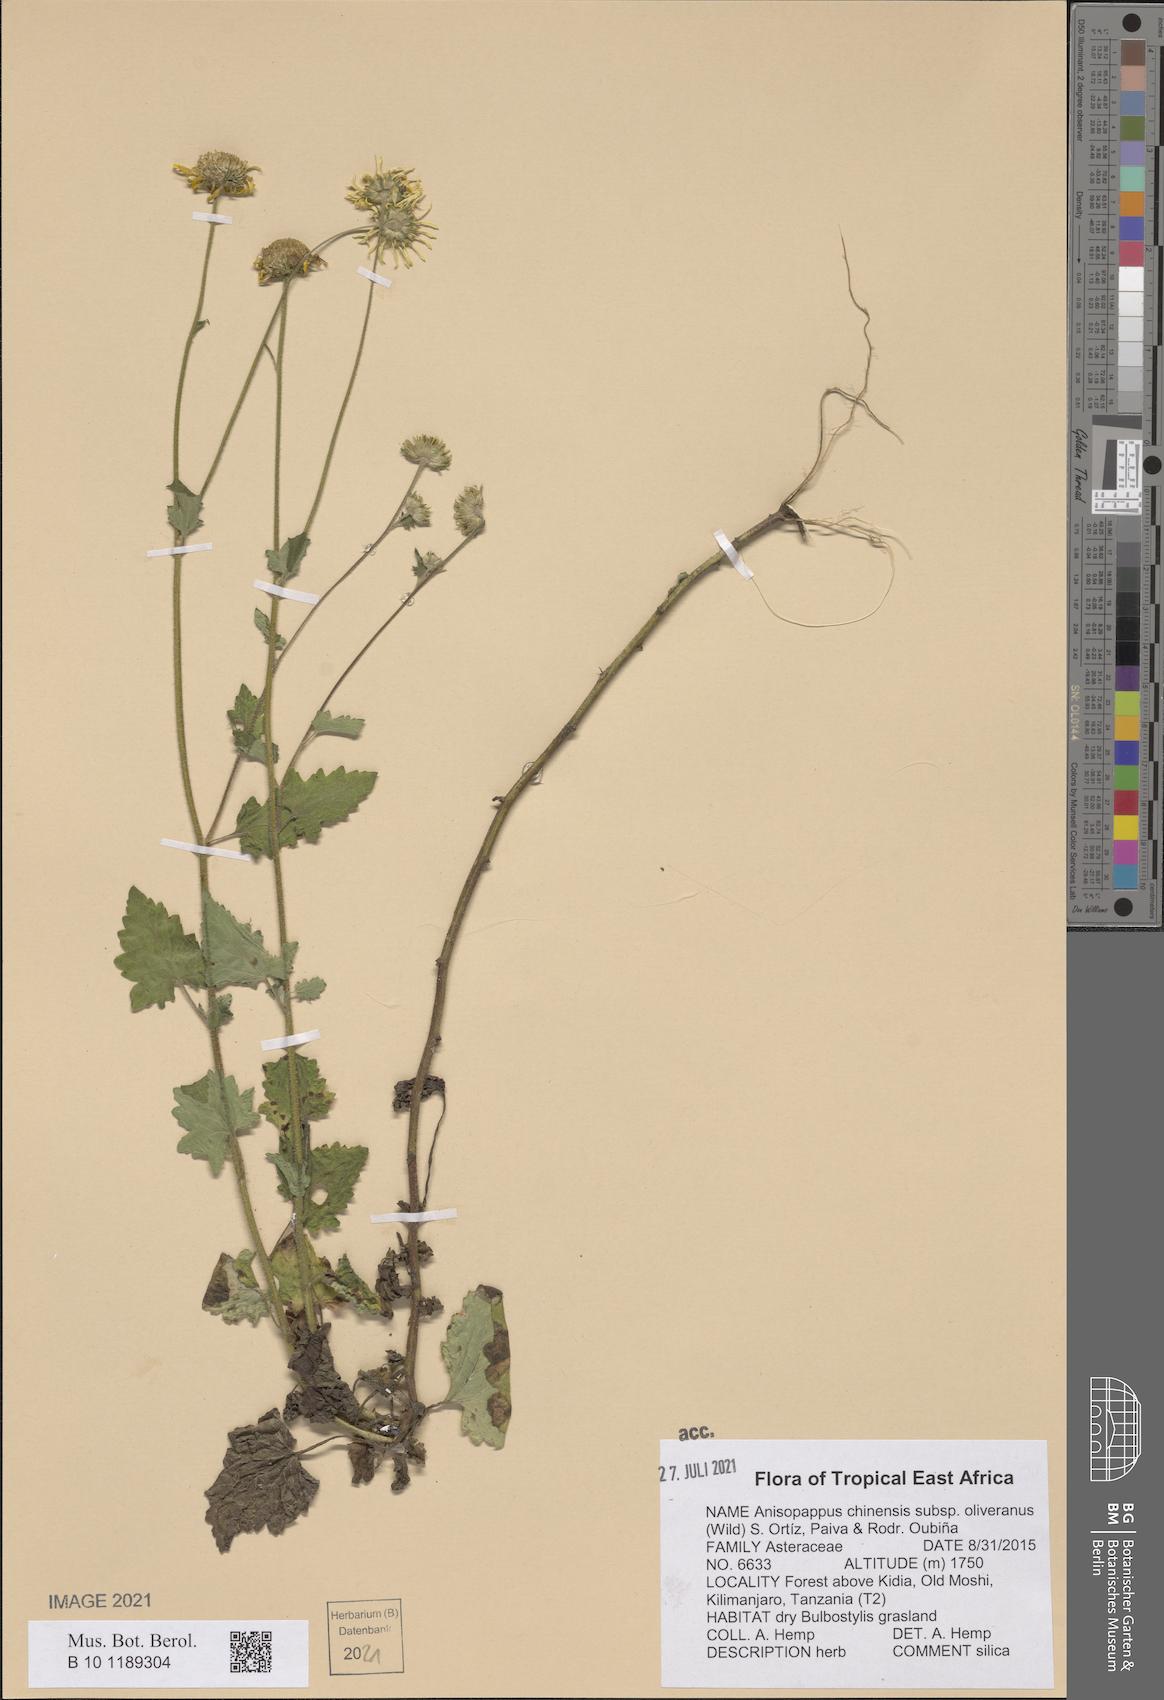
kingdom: Plantae
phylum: Tracheophyta
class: Magnoliopsida
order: Asterales
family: Asteraceae
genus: Anisopappus
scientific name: Anisopappus oliverianus
